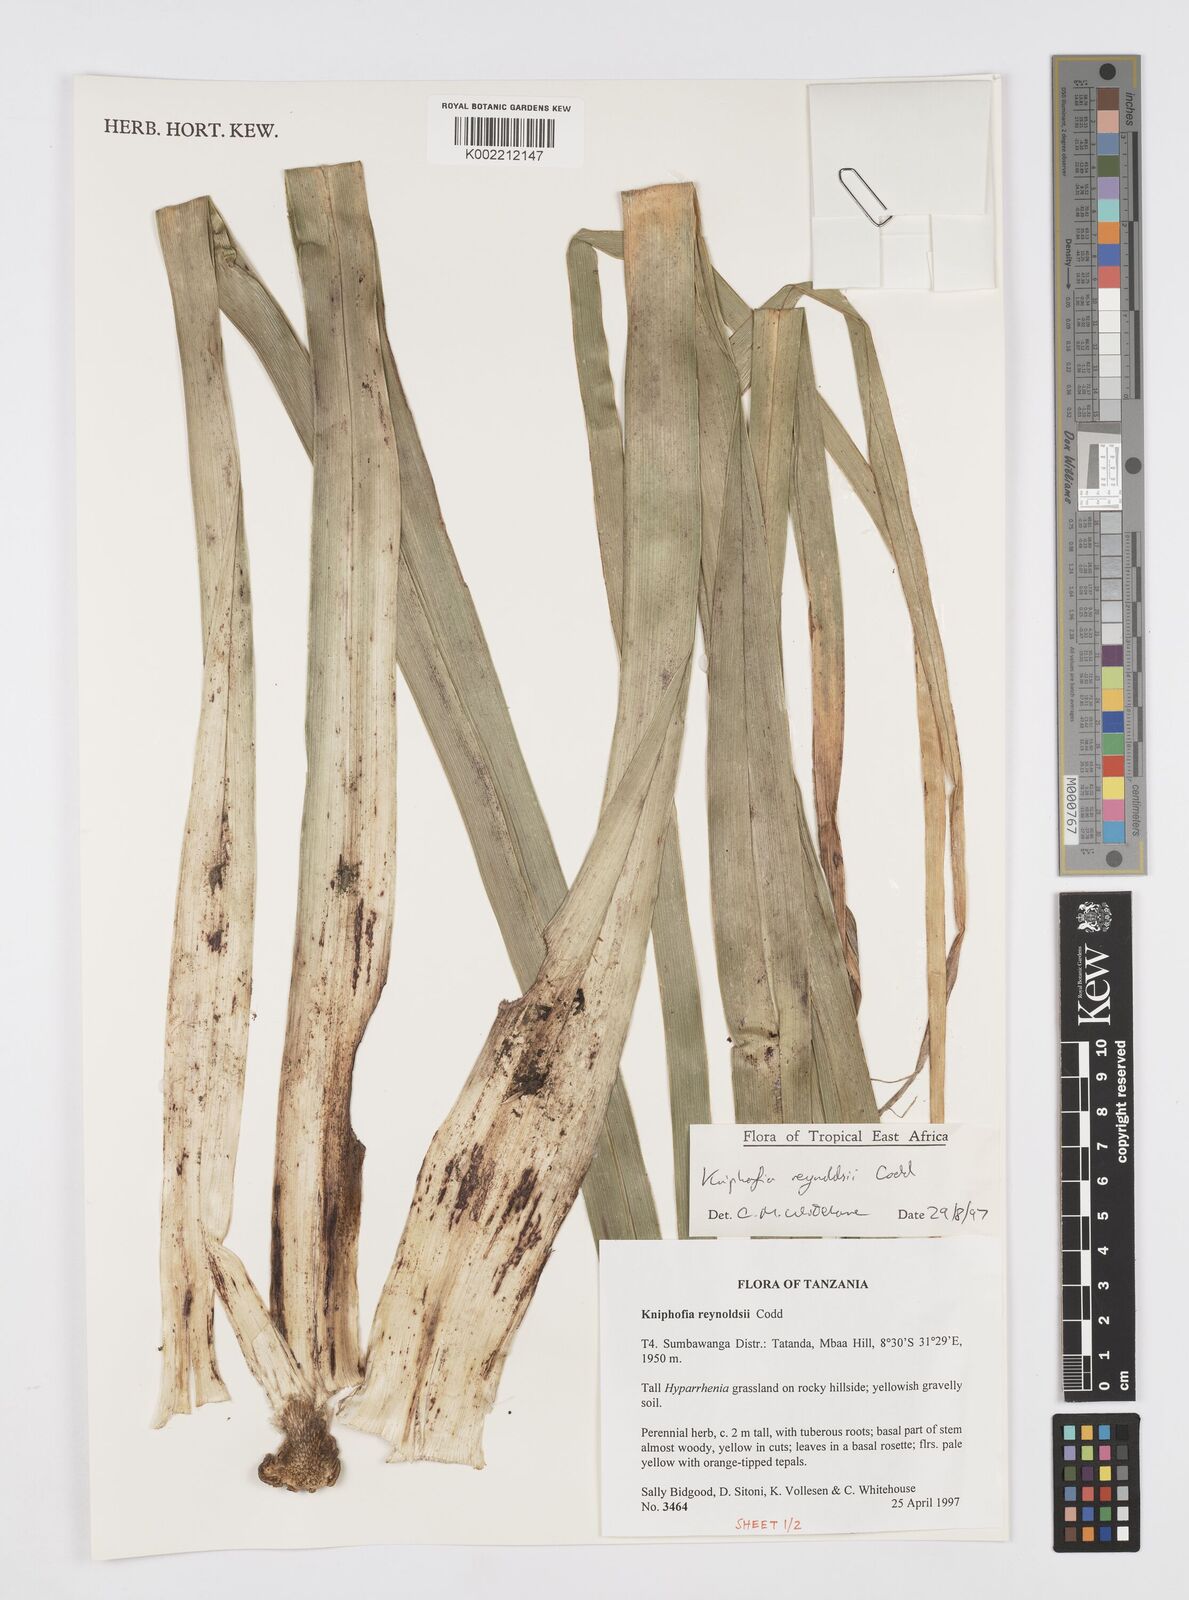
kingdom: Plantae
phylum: Tracheophyta
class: Liliopsida
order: Asparagales
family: Asphodelaceae
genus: Kniphofia
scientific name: Kniphofia reynoldsii
